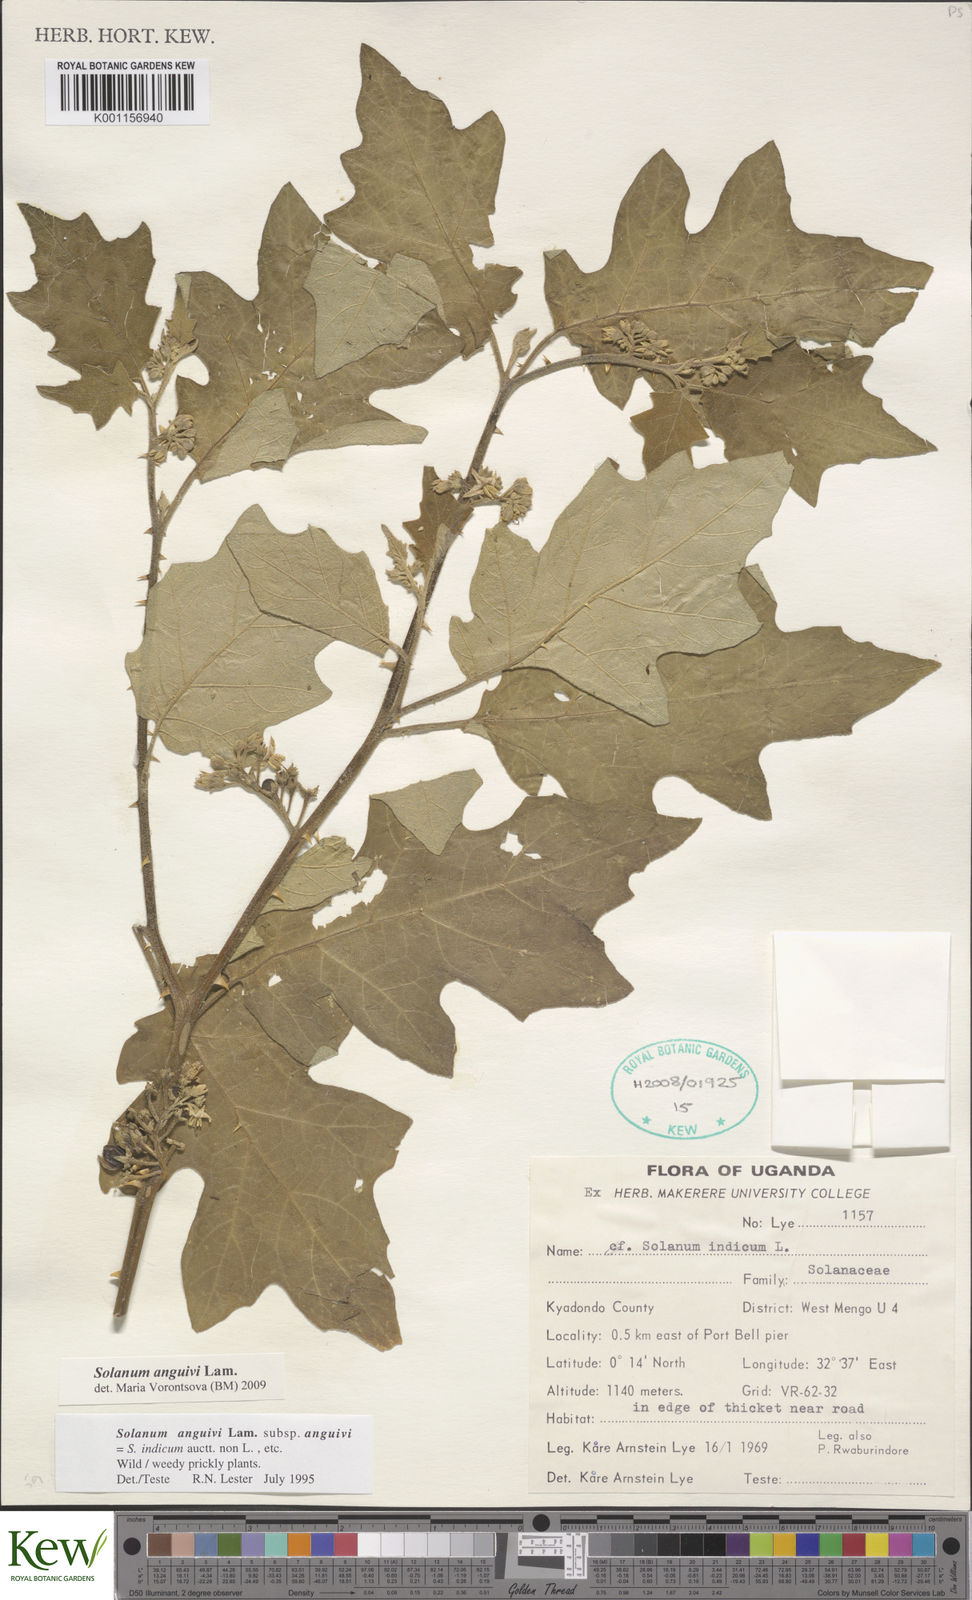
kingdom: Plantae
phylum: Tracheophyta
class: Magnoliopsida
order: Solanales
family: Solanaceae
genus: Solanum
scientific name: Solanum anguivi
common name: Forest bitterberry
